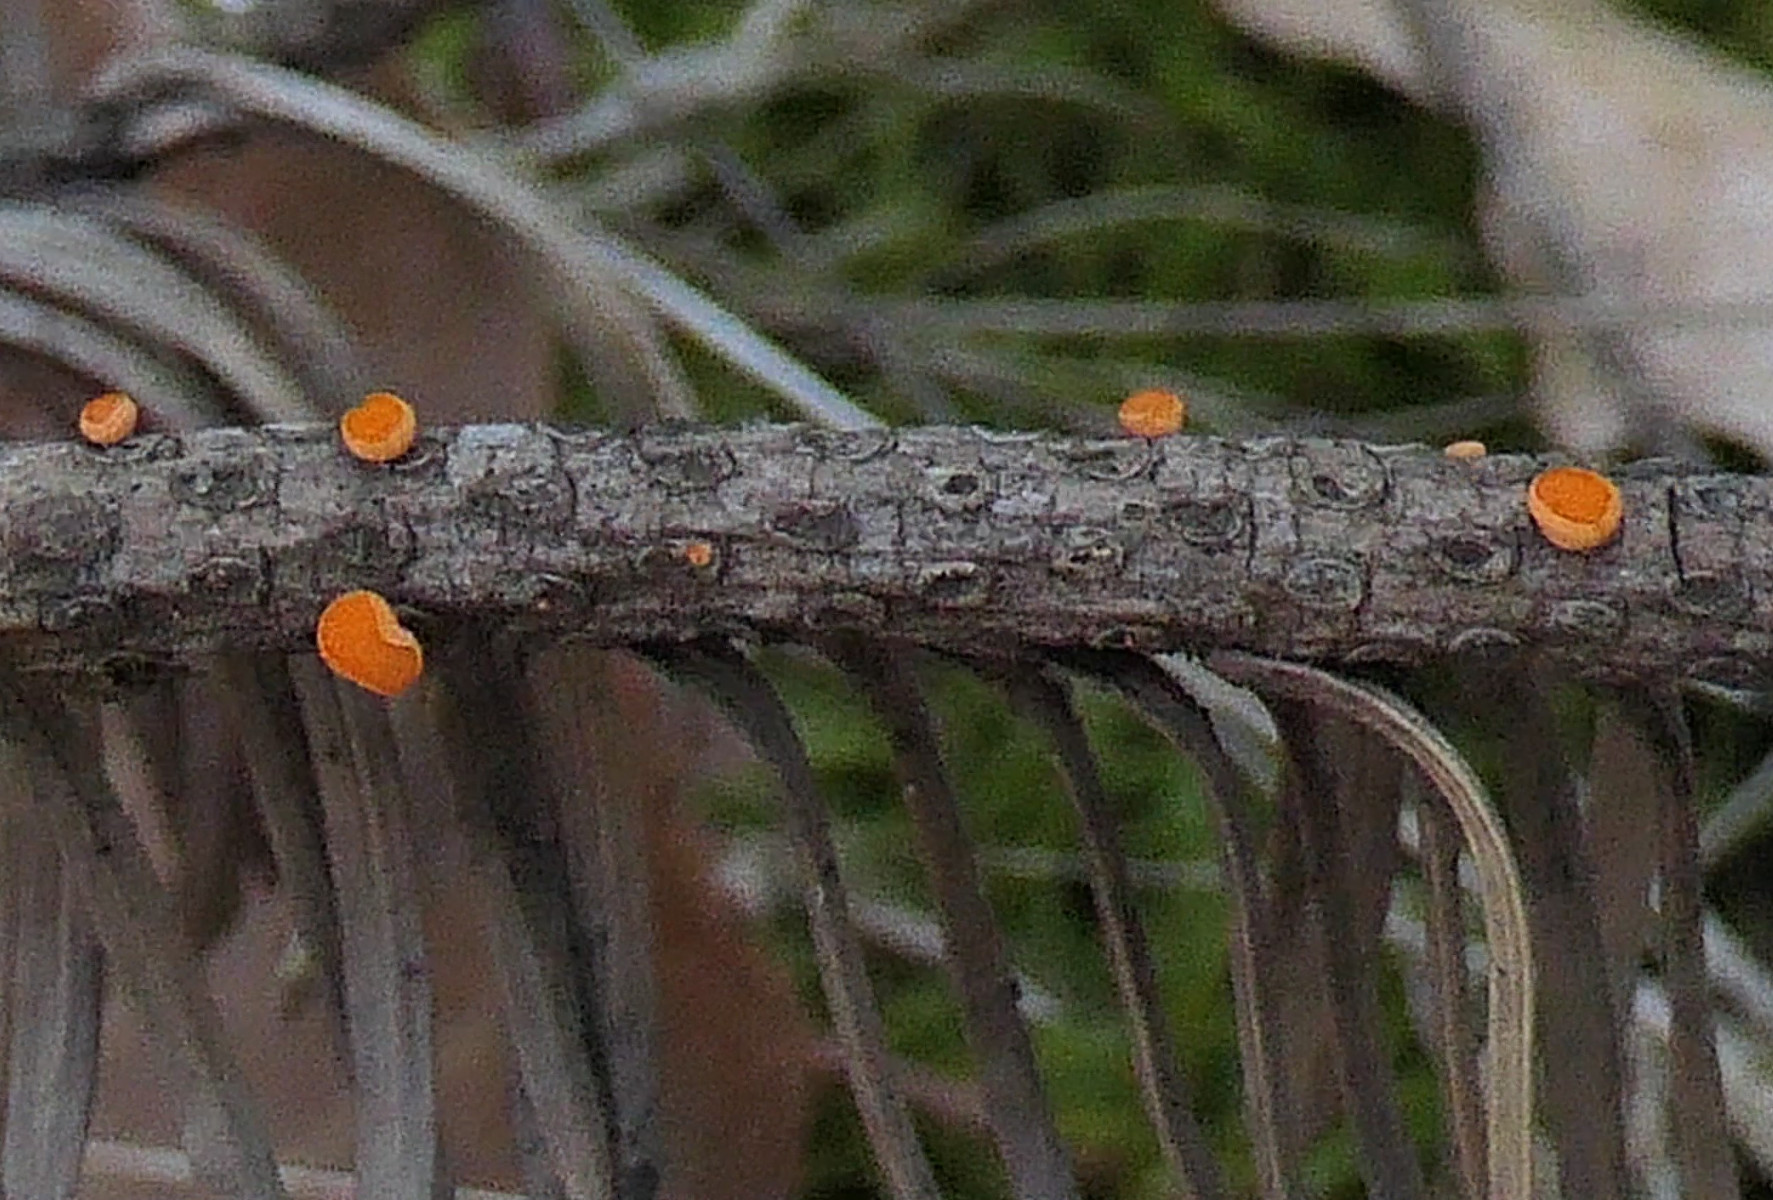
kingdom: Fungi
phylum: Ascomycota
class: Pezizomycetes
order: Pezizales
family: Sarcoscyphaceae
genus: Pithya
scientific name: Pithya vulgaris
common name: stor dukatbæger
